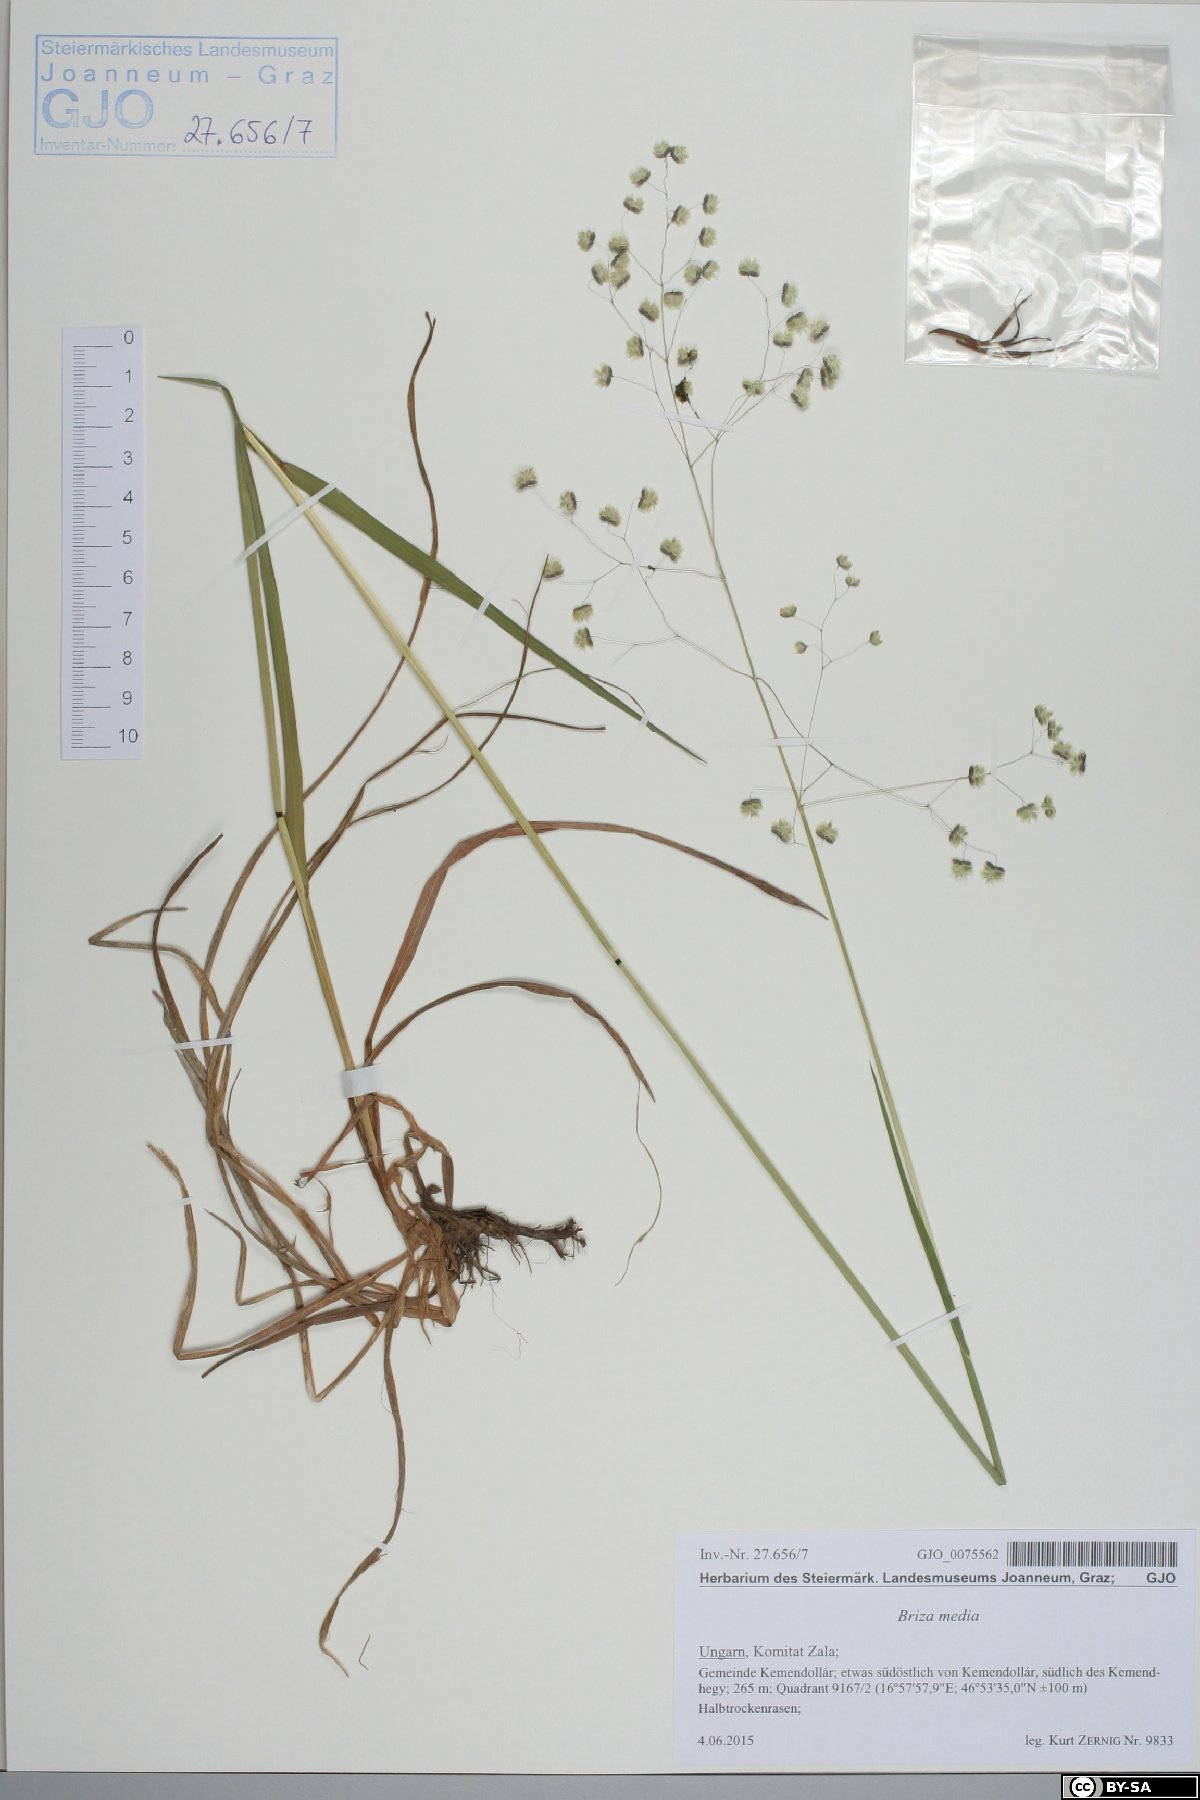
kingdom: Plantae
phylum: Tracheophyta
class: Liliopsida
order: Poales
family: Poaceae
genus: Briza
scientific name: Briza media
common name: Quaking grass
